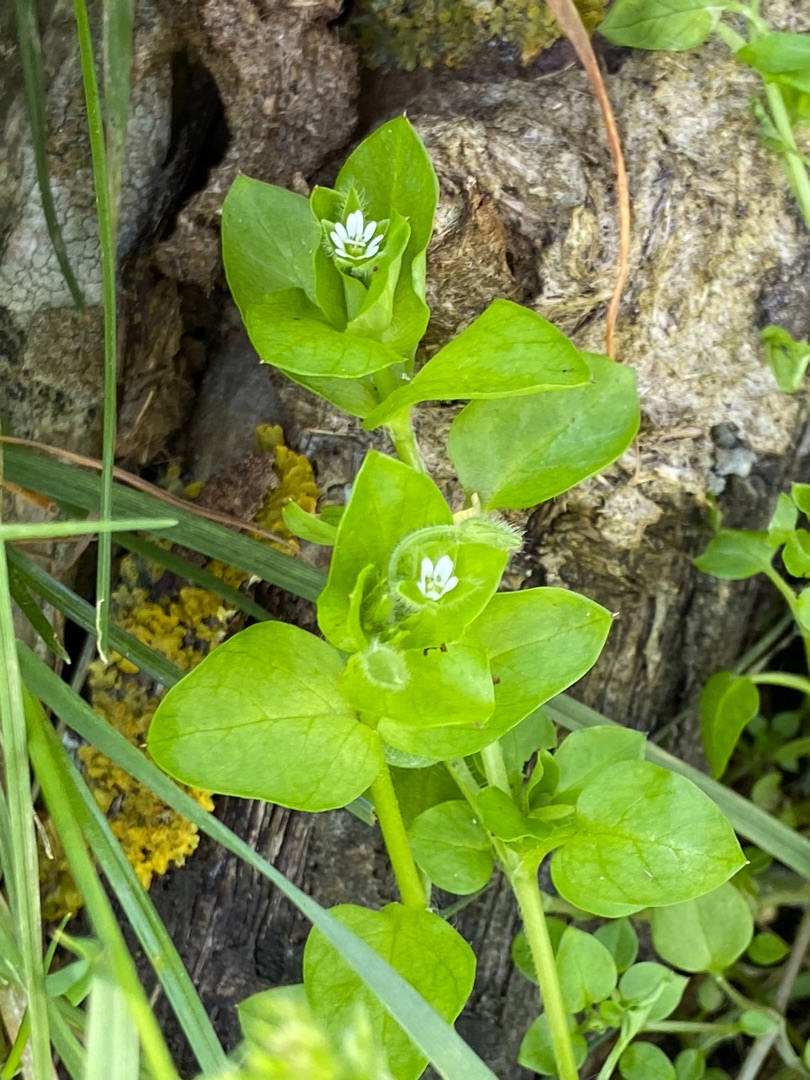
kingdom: Plantae
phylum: Tracheophyta
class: Magnoliopsida
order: Caryophyllales
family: Caryophyllaceae
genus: Stellaria
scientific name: Stellaria media
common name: Almindelig fuglegræs
